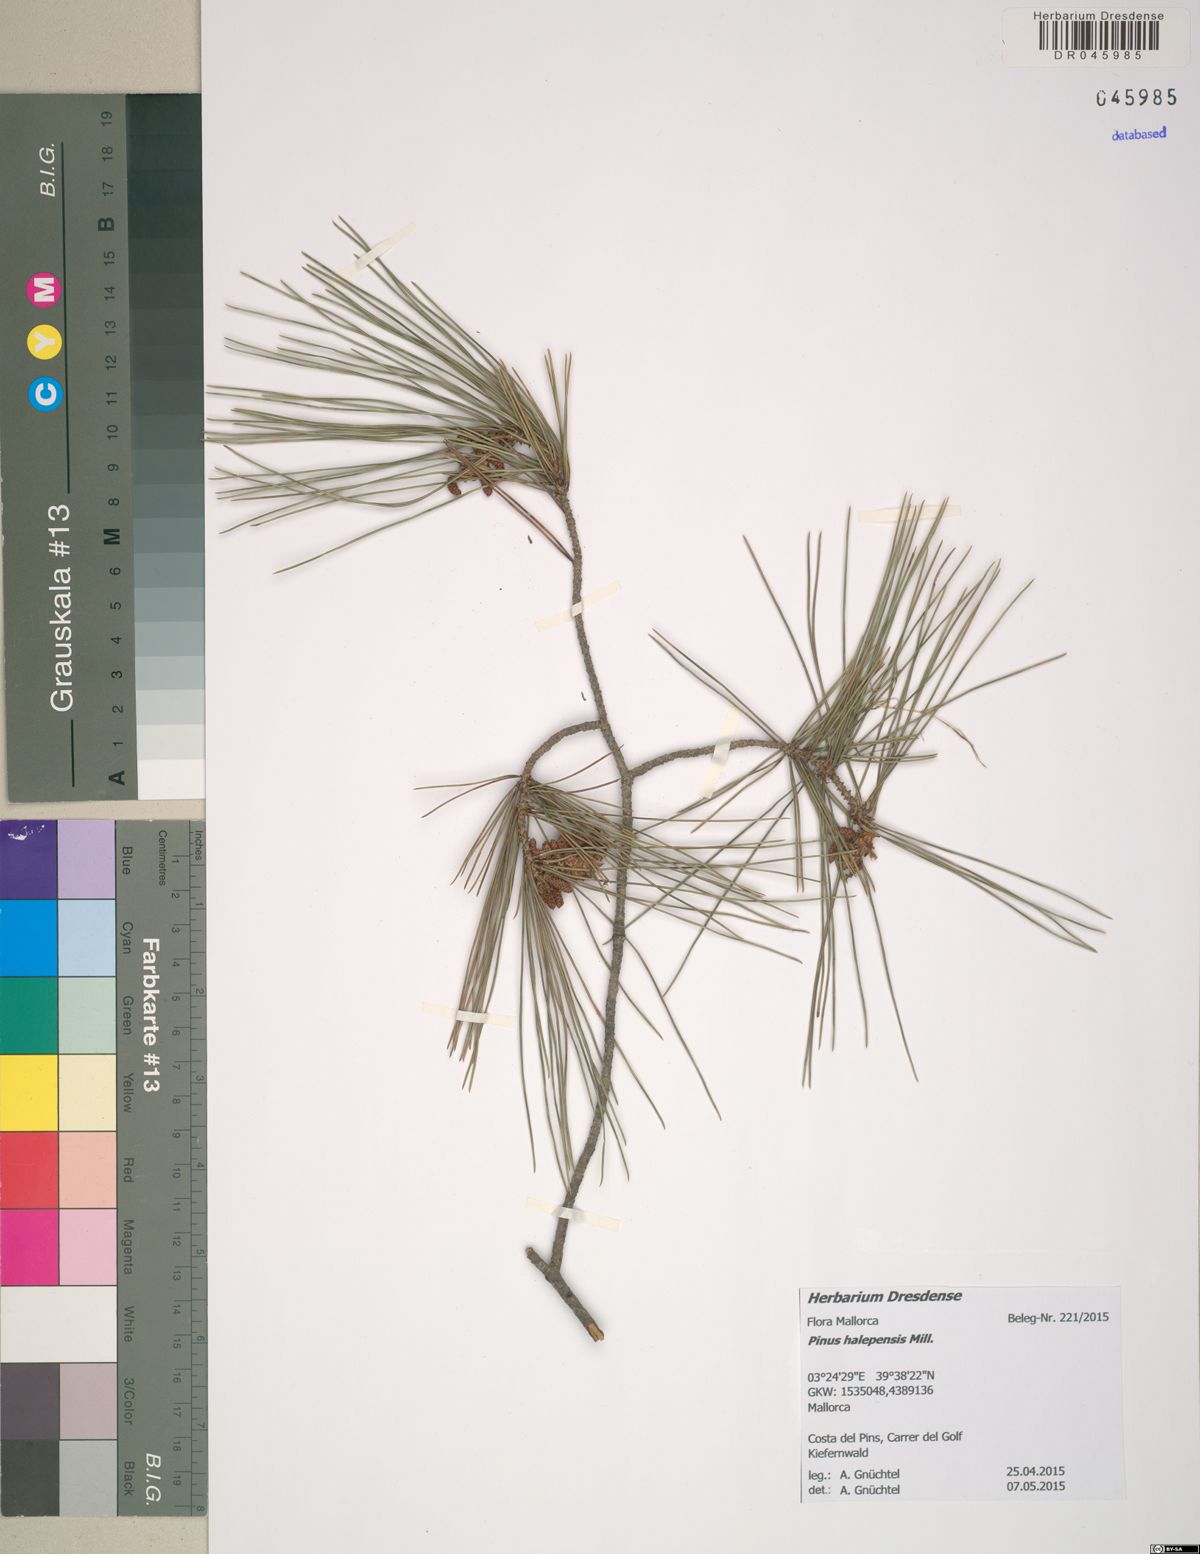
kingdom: Plantae
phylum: Tracheophyta
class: Pinopsida
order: Pinales
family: Pinaceae
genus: Pinus
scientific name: Pinus halepensis
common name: Aleppo pine
